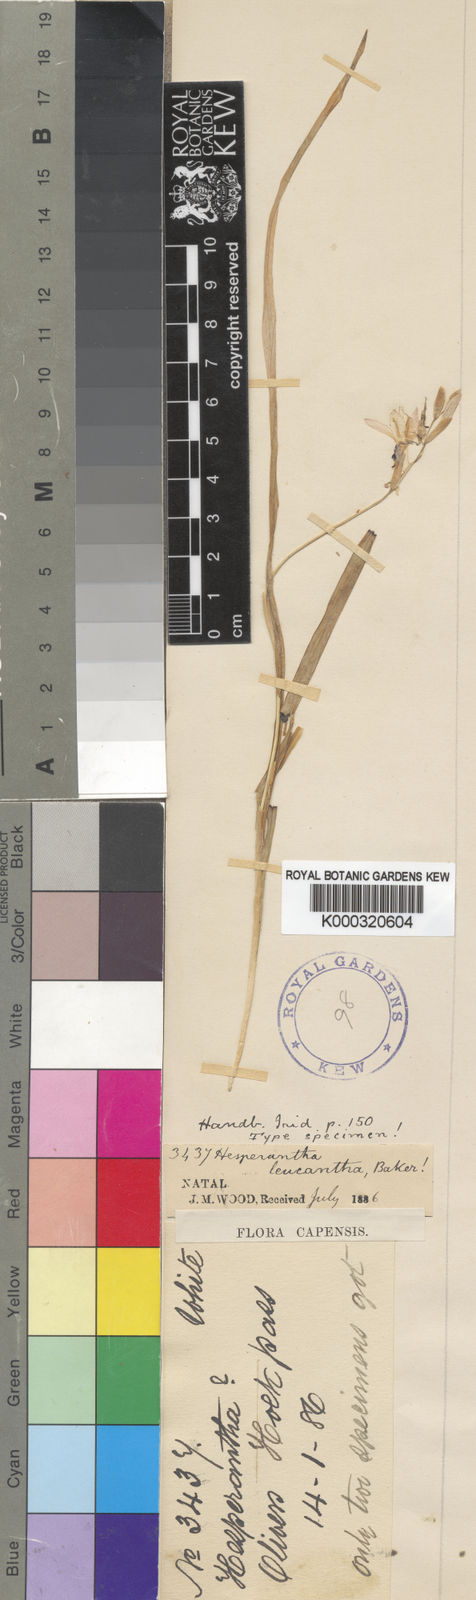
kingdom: Plantae
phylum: Tracheophyta
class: Liliopsida
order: Asparagales
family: Iridaceae
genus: Hesperantha
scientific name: Hesperantha leucantha
